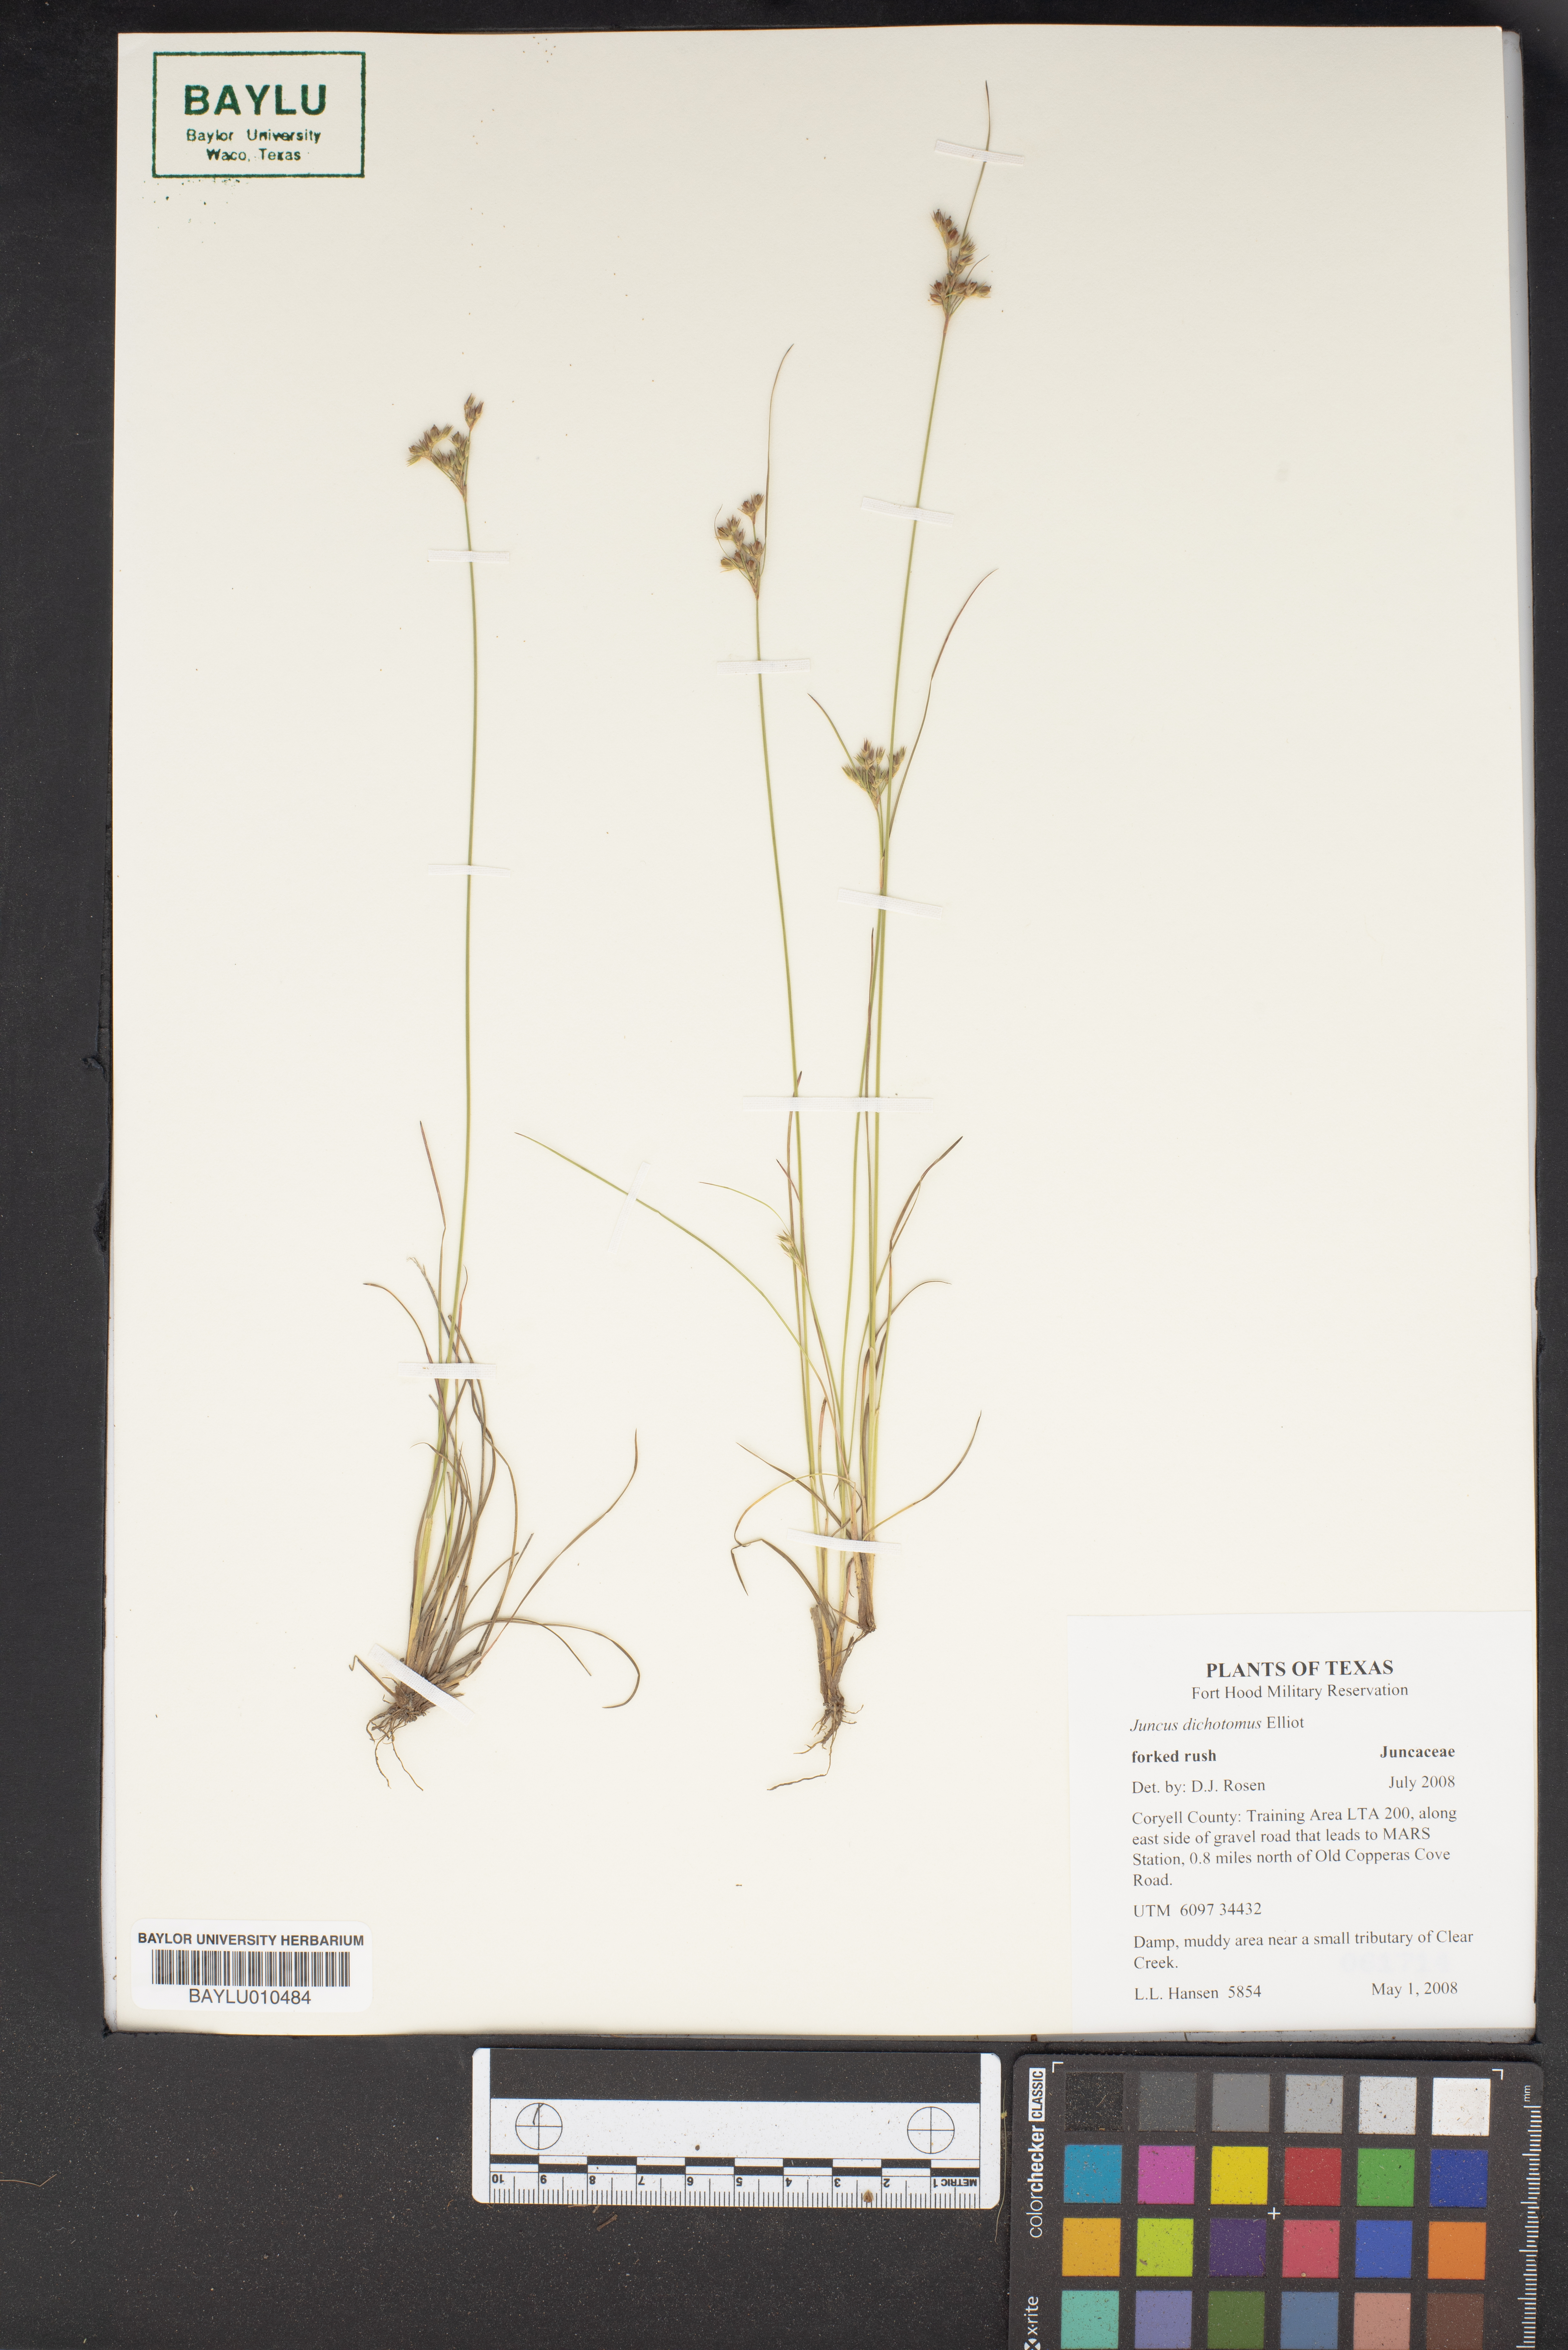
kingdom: Plantae
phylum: Tracheophyta
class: Liliopsida
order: Poales
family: Juncaceae
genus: Juncus
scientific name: Juncus dichotomus
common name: Forked rush
